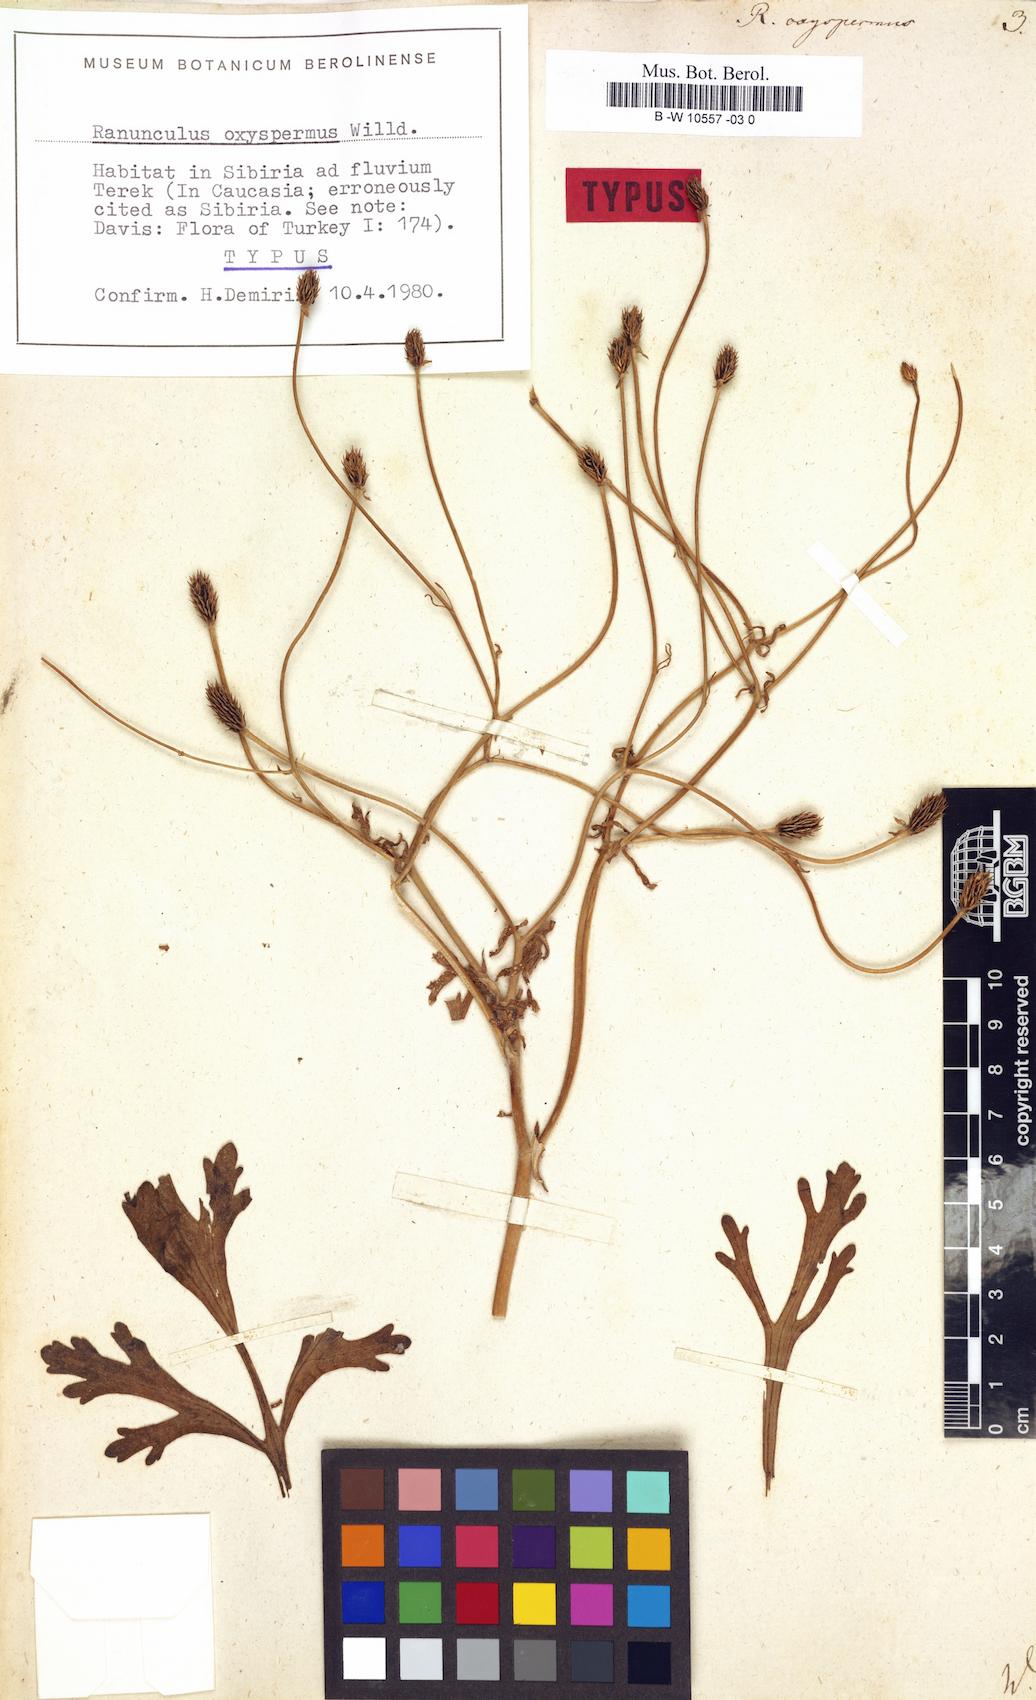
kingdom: Plantae
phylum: Tracheophyta
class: Magnoliopsida
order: Ranunculales
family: Ranunculaceae
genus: Ranunculus
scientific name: Ranunculus oxyspermus
